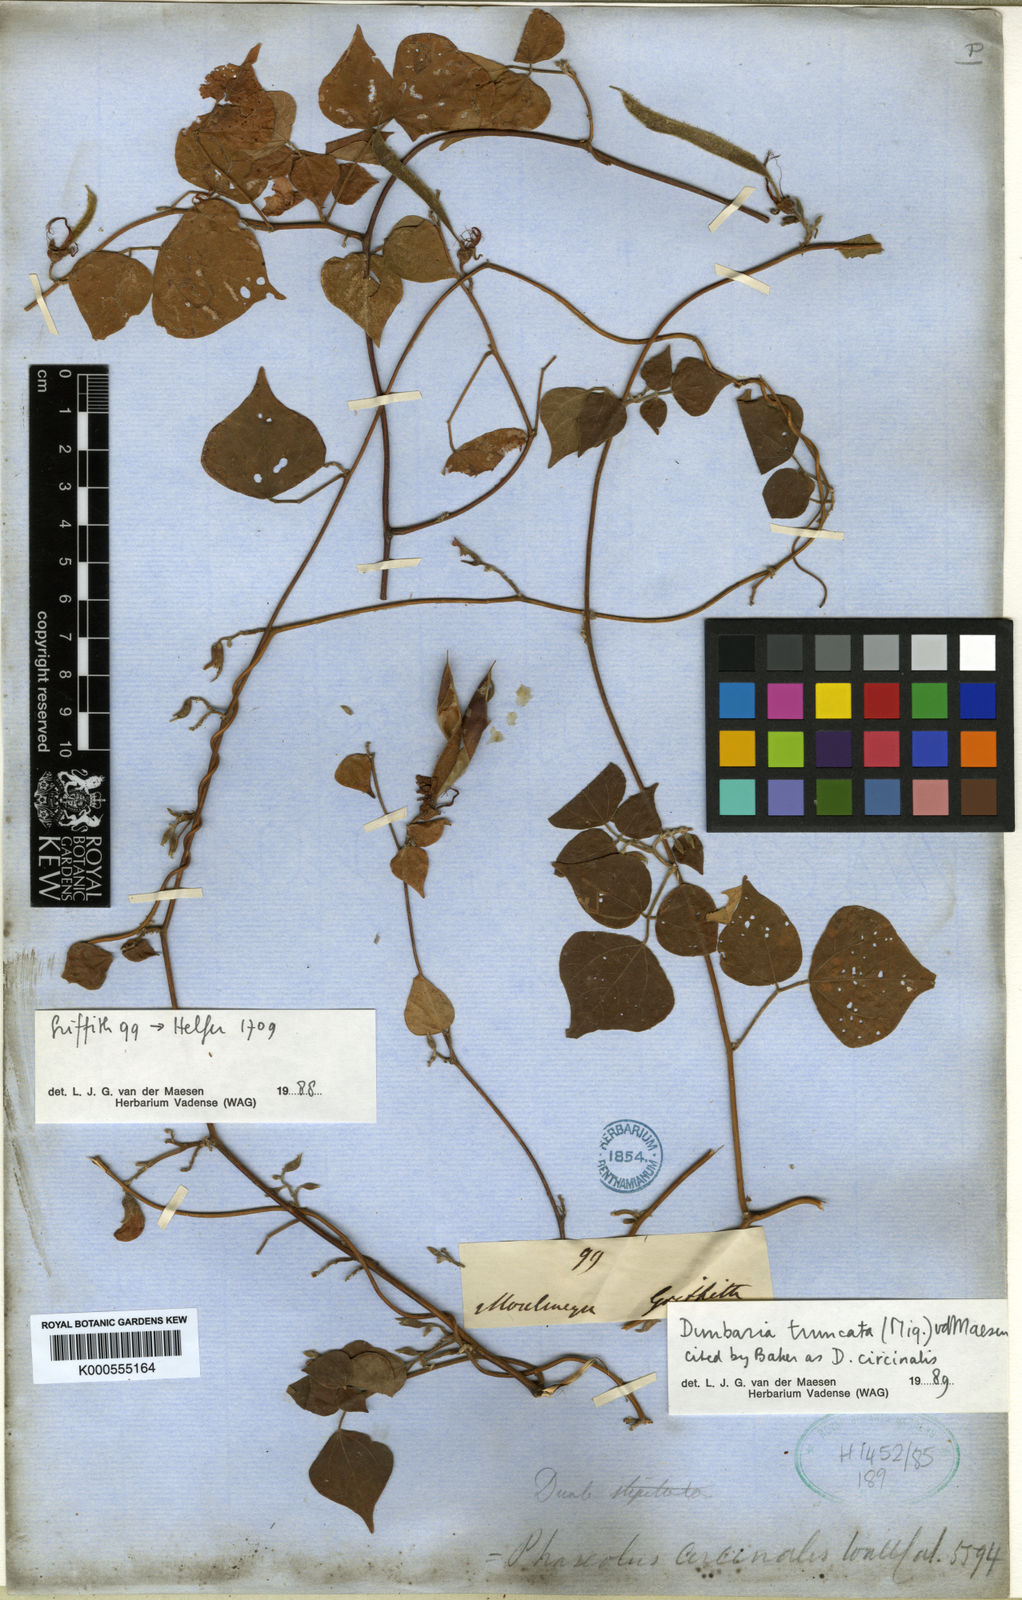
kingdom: Plantae
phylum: Tracheophyta
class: Magnoliopsida
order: Fabales
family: Fabaceae
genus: Dunbaria
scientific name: Dunbaria circinalis
